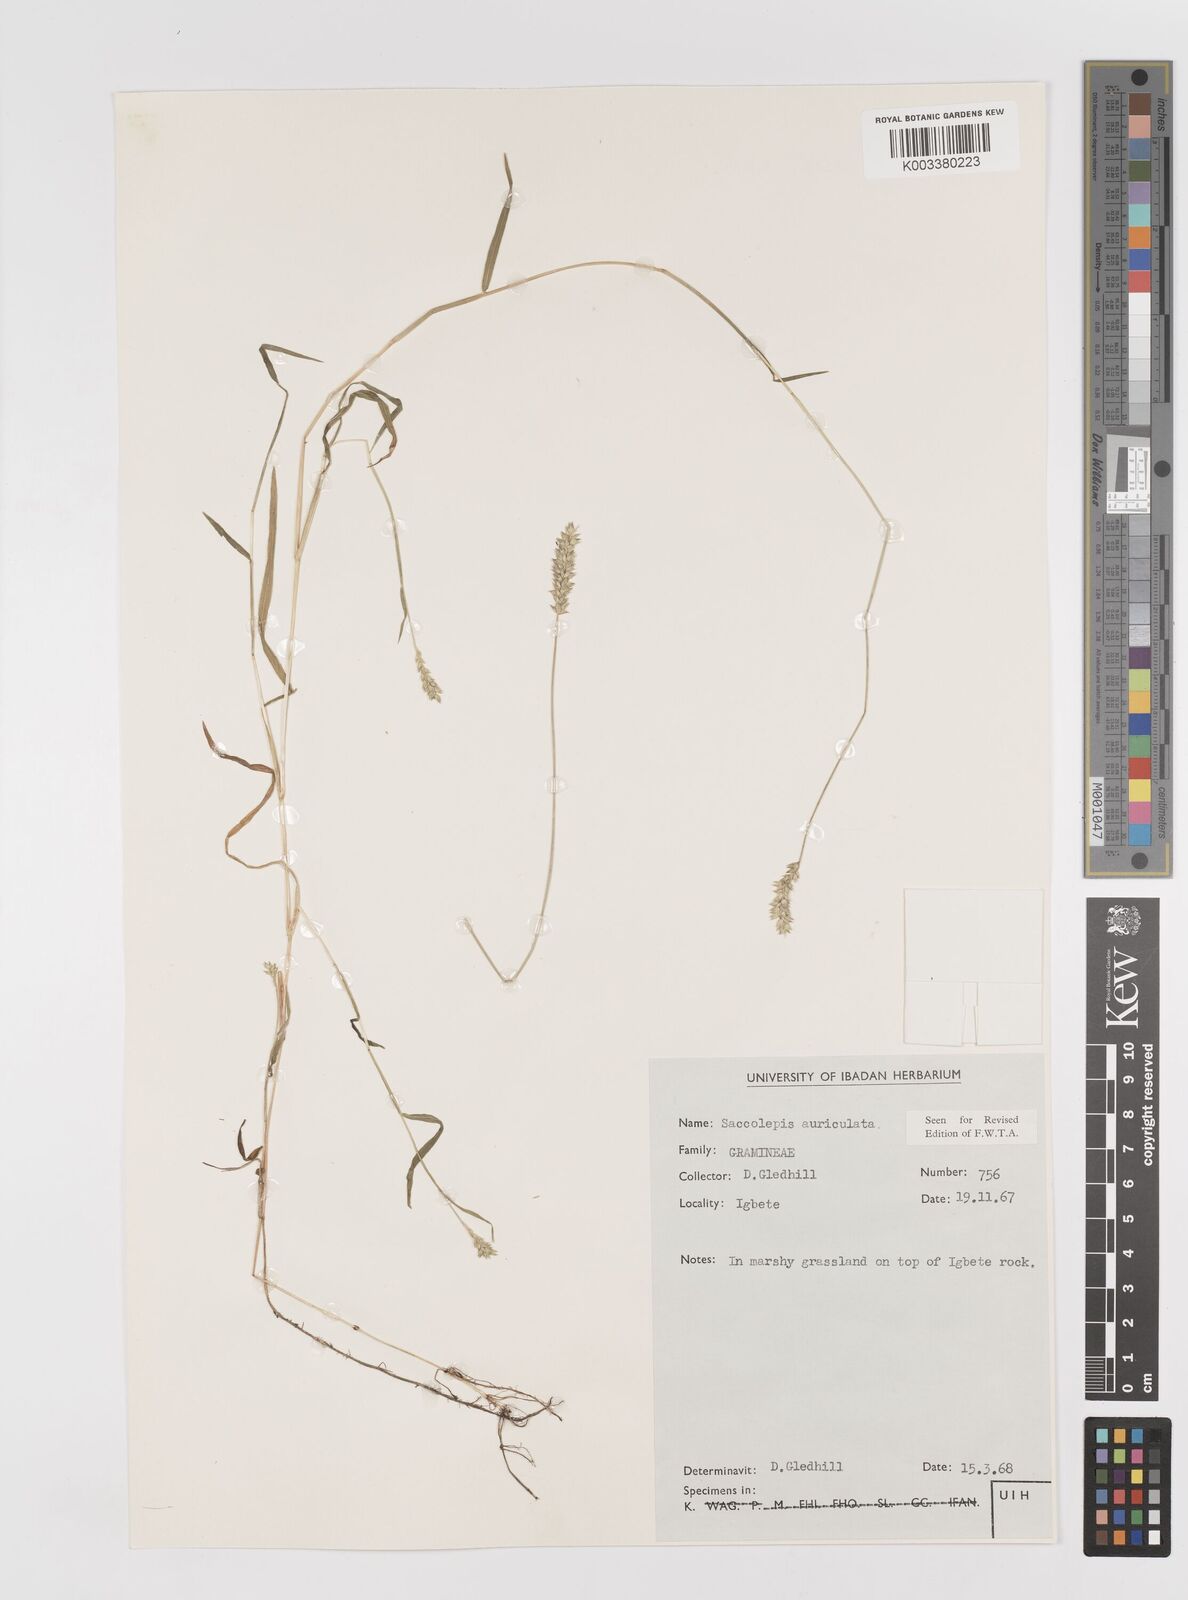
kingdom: Plantae
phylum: Tracheophyta
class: Liliopsida
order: Poales
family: Poaceae
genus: Sacciolepis
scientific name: Sacciolepis indica
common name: Glenwoodgrass
